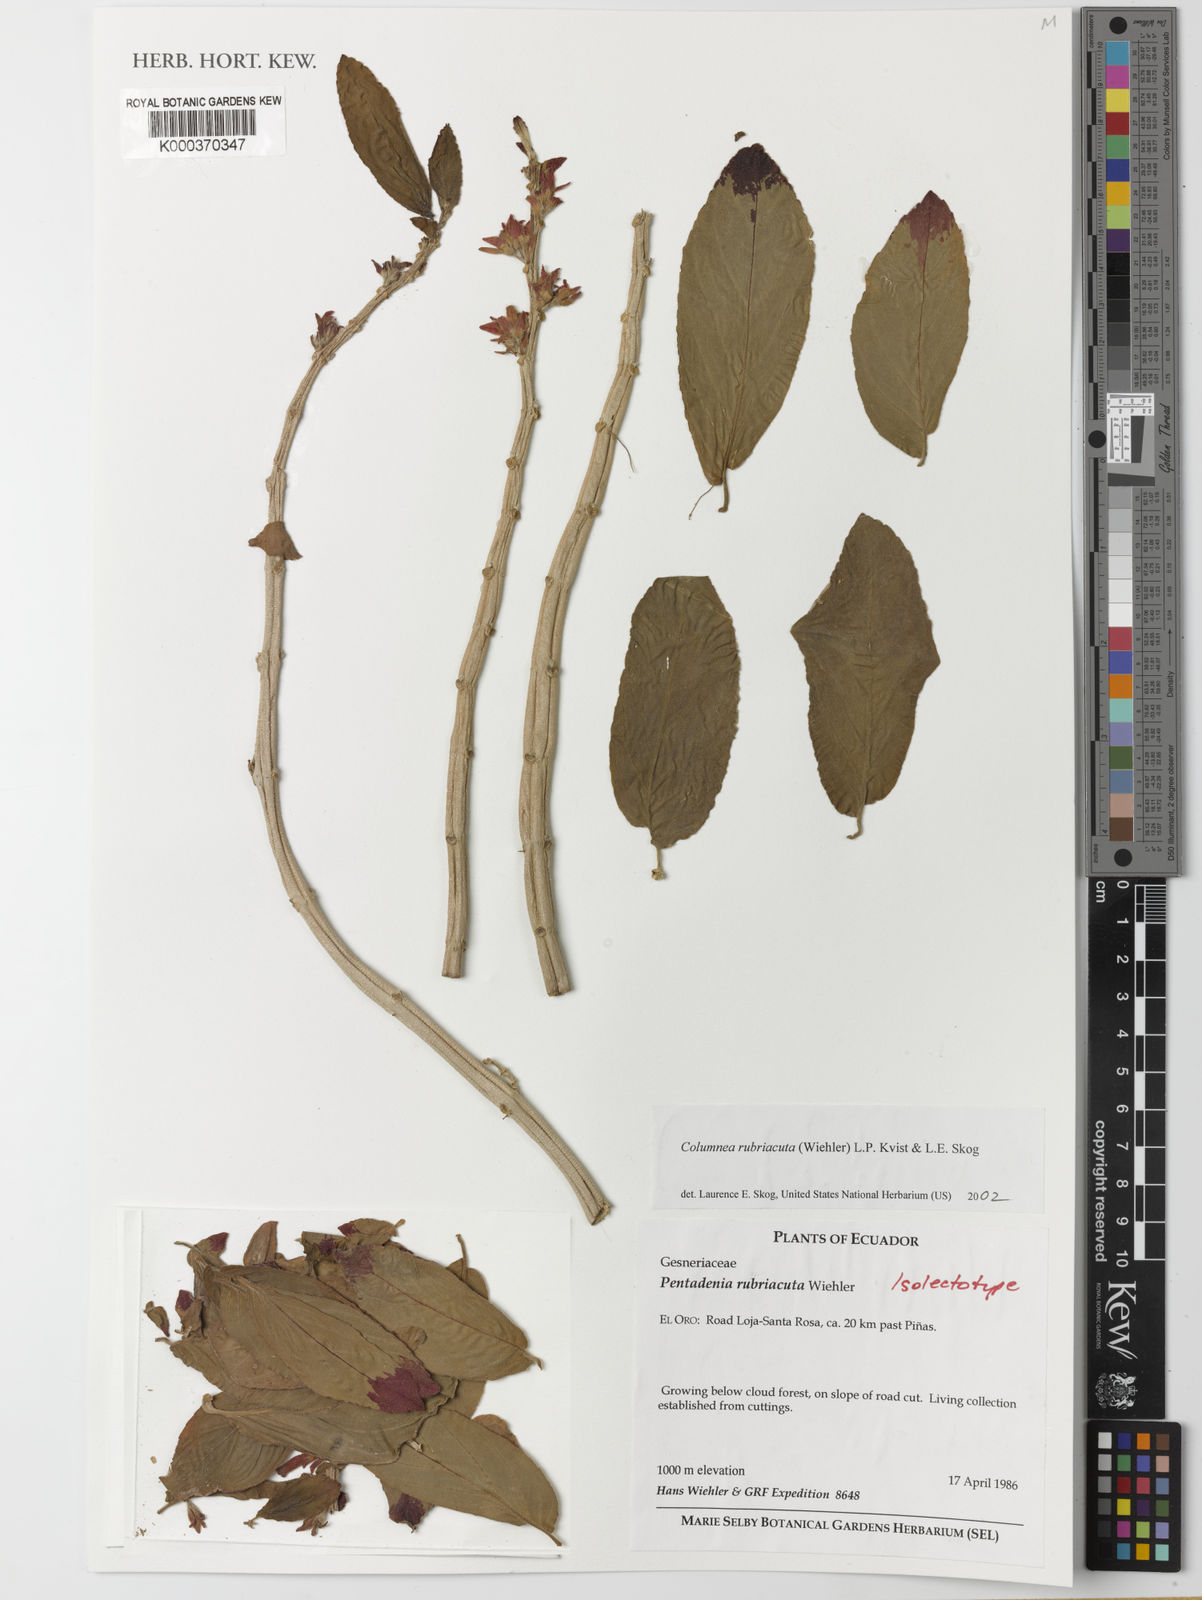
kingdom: Plantae
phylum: Tracheophyta
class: Magnoliopsida
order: Lamiales
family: Gesneriaceae
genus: Columnea
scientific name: Columnea rubriacuta
